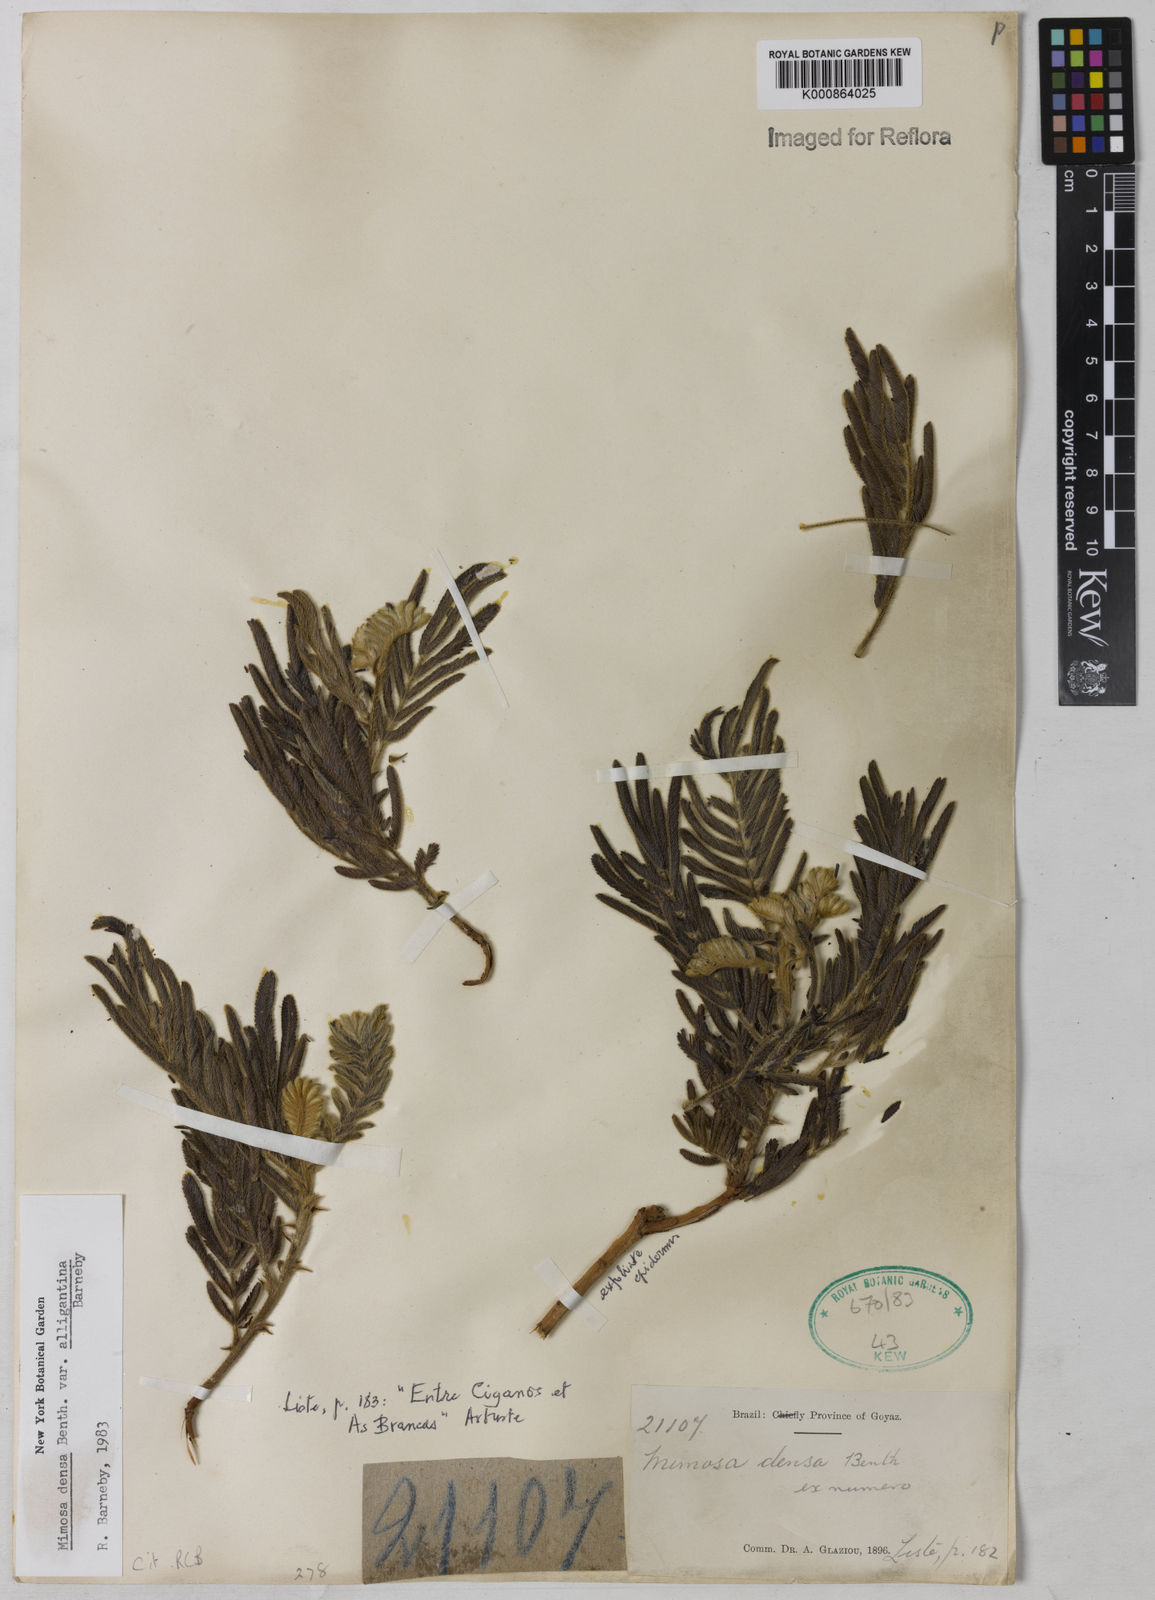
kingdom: Plantae
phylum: Tracheophyta
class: Magnoliopsida
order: Fabales
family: Fabaceae
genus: Mimosa
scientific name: Mimosa densa
